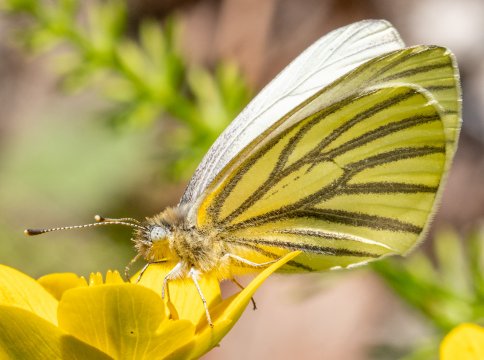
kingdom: Animalia
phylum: Arthropoda
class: Insecta
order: Lepidoptera
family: Pieridae
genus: Pieris
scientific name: Pieris oleracea
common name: Mustard White
